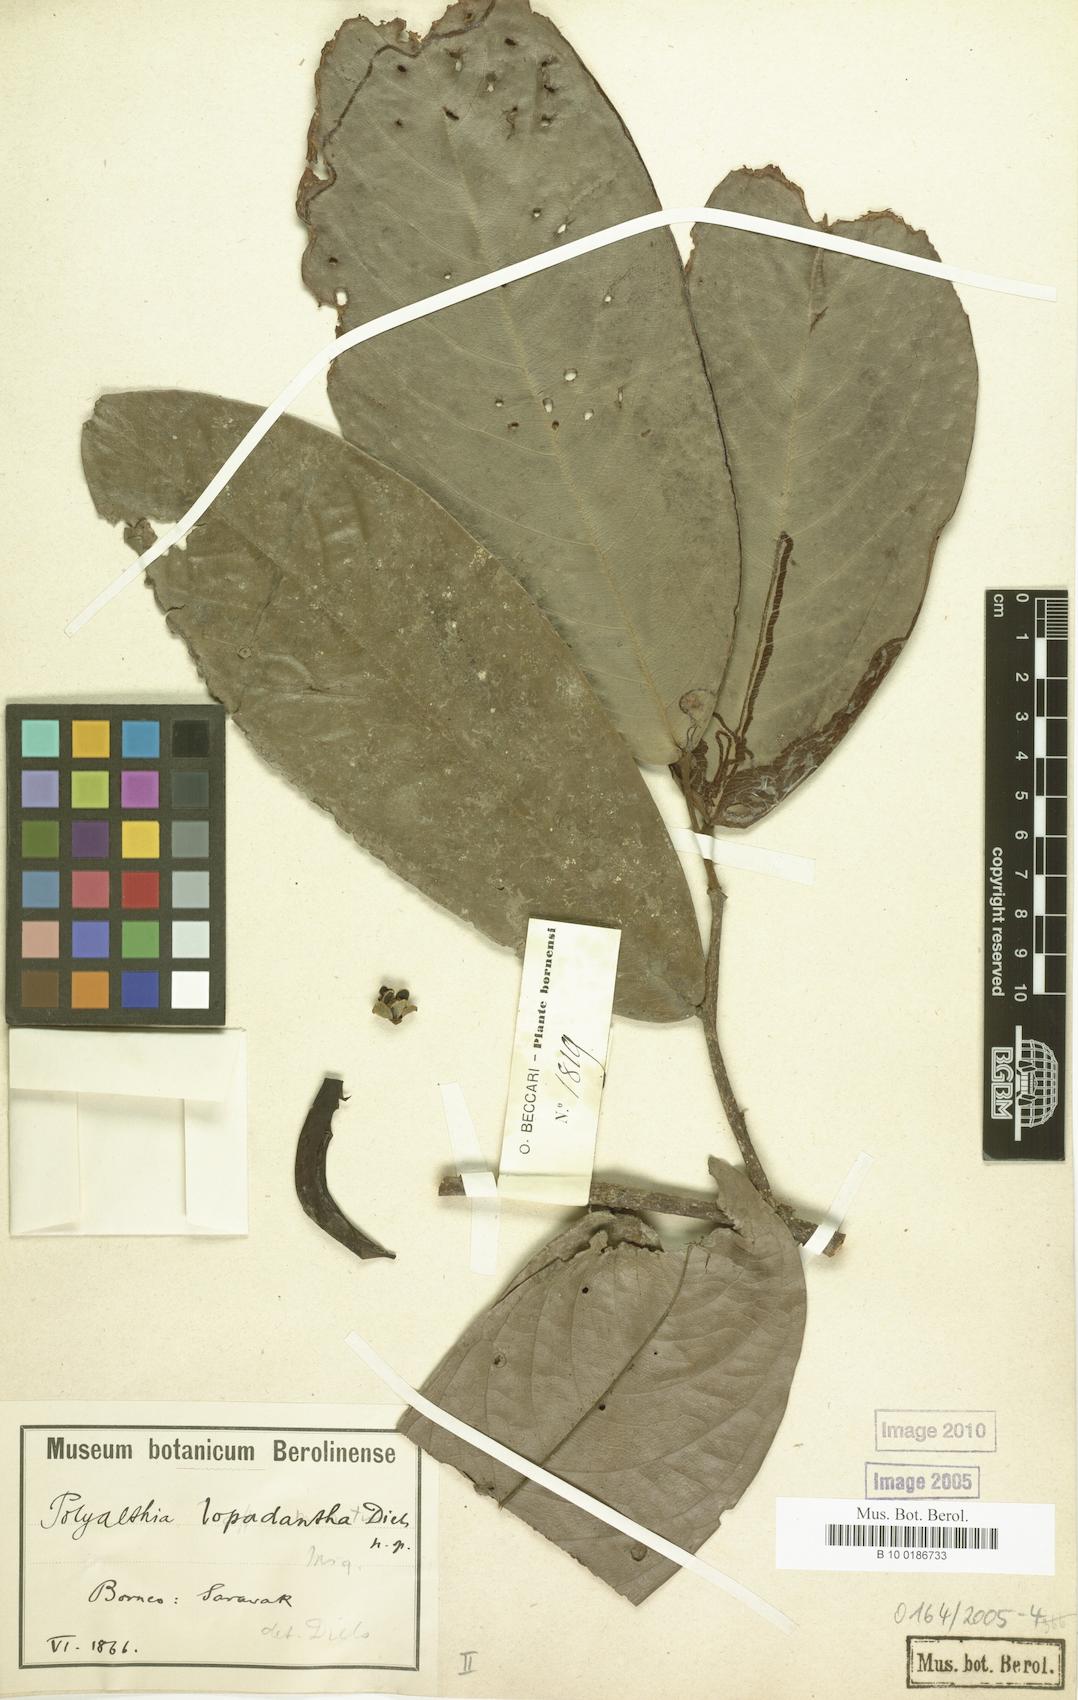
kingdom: Plantae
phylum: Tracheophyta
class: Magnoliopsida
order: Magnoliales
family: Annonaceae
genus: Polyalthia
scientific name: Polyalthia obliqua
